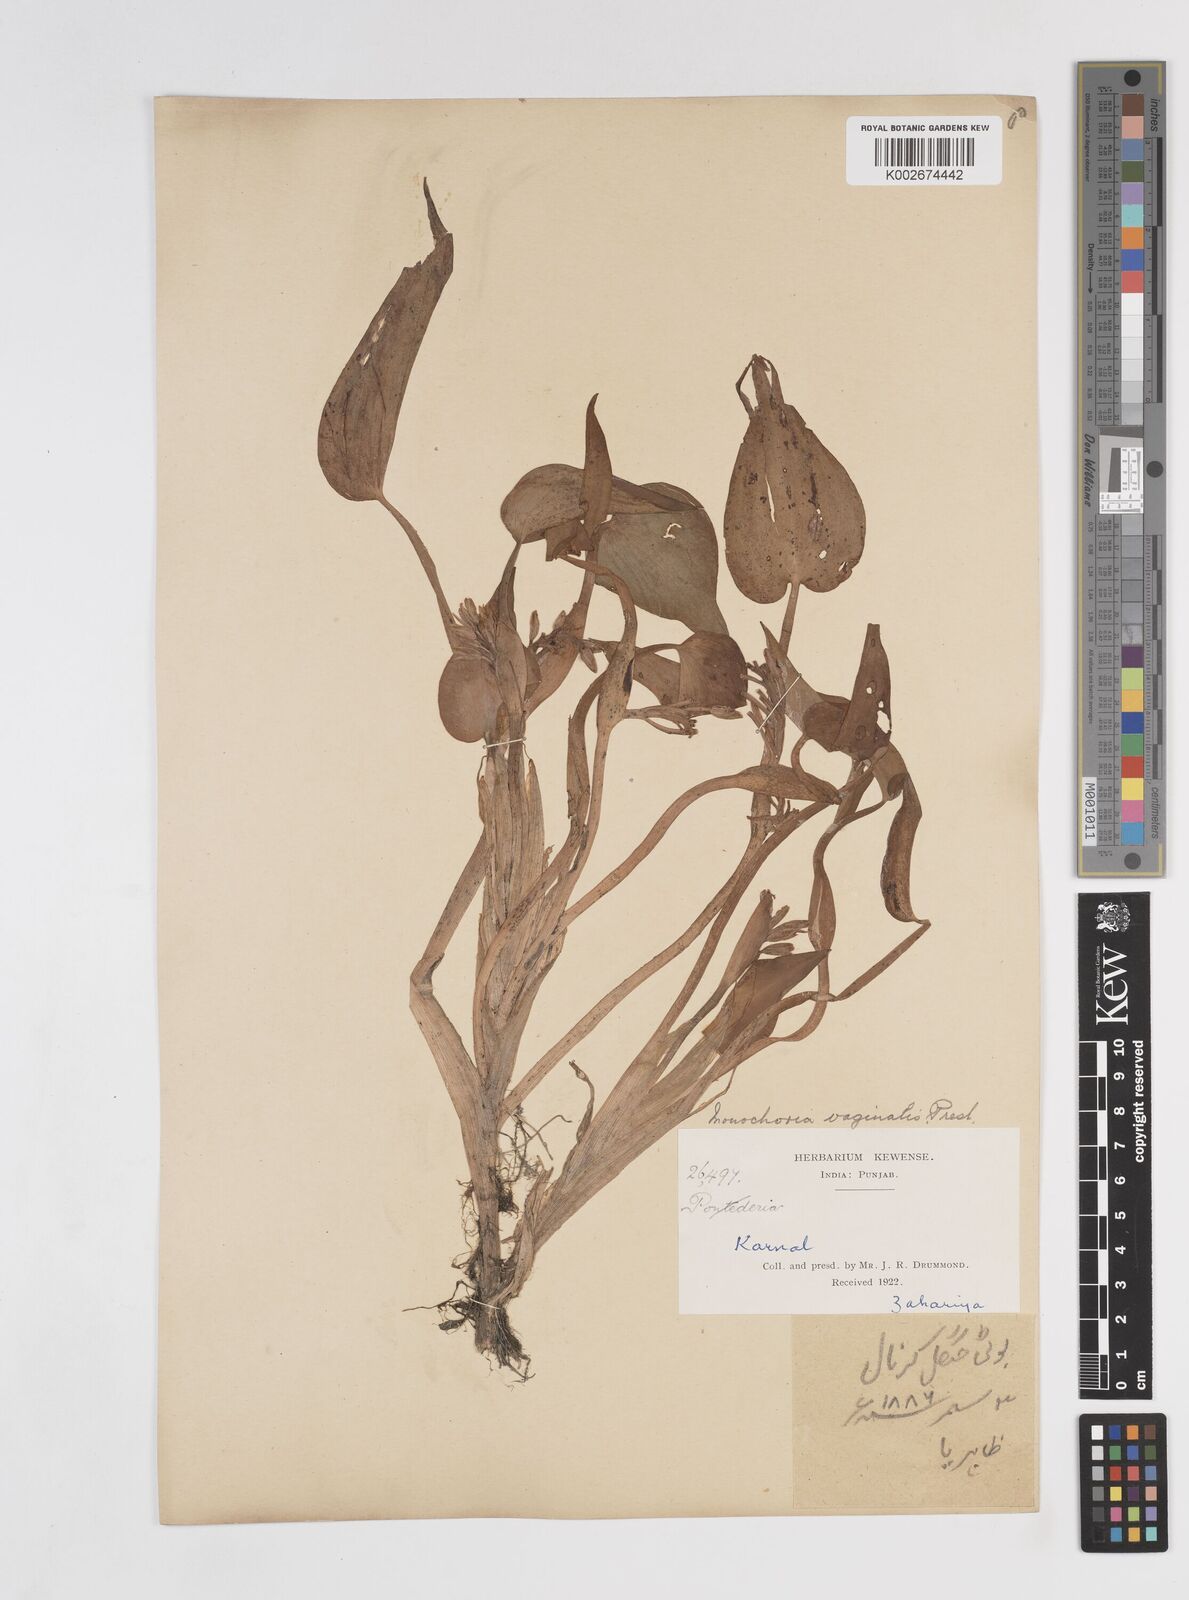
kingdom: Plantae
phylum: Tracheophyta
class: Liliopsida
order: Commelinales
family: Pontederiaceae
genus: Pontederia
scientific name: Pontederia vaginalis
